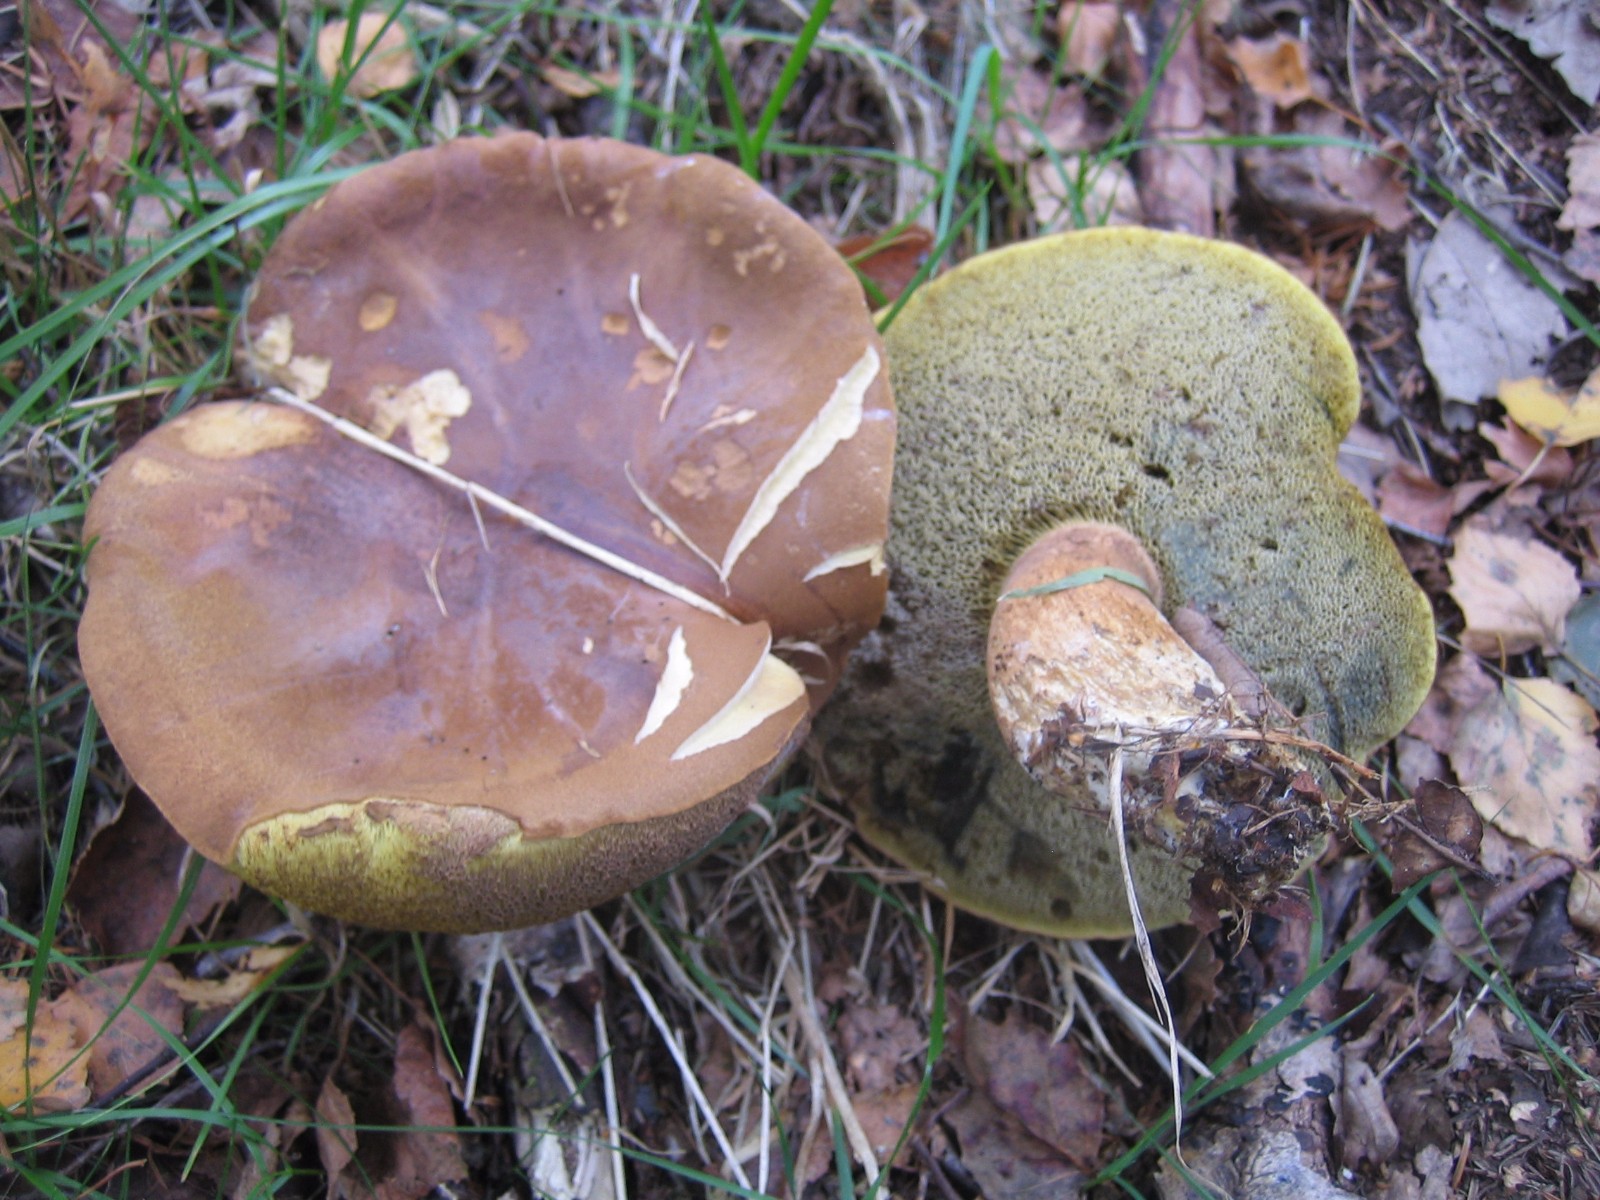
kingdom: Fungi
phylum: Basidiomycota
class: Agaricomycetes
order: Boletales
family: Boletaceae
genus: Imleria
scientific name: Imleria badia
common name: brunstokket rørhat
